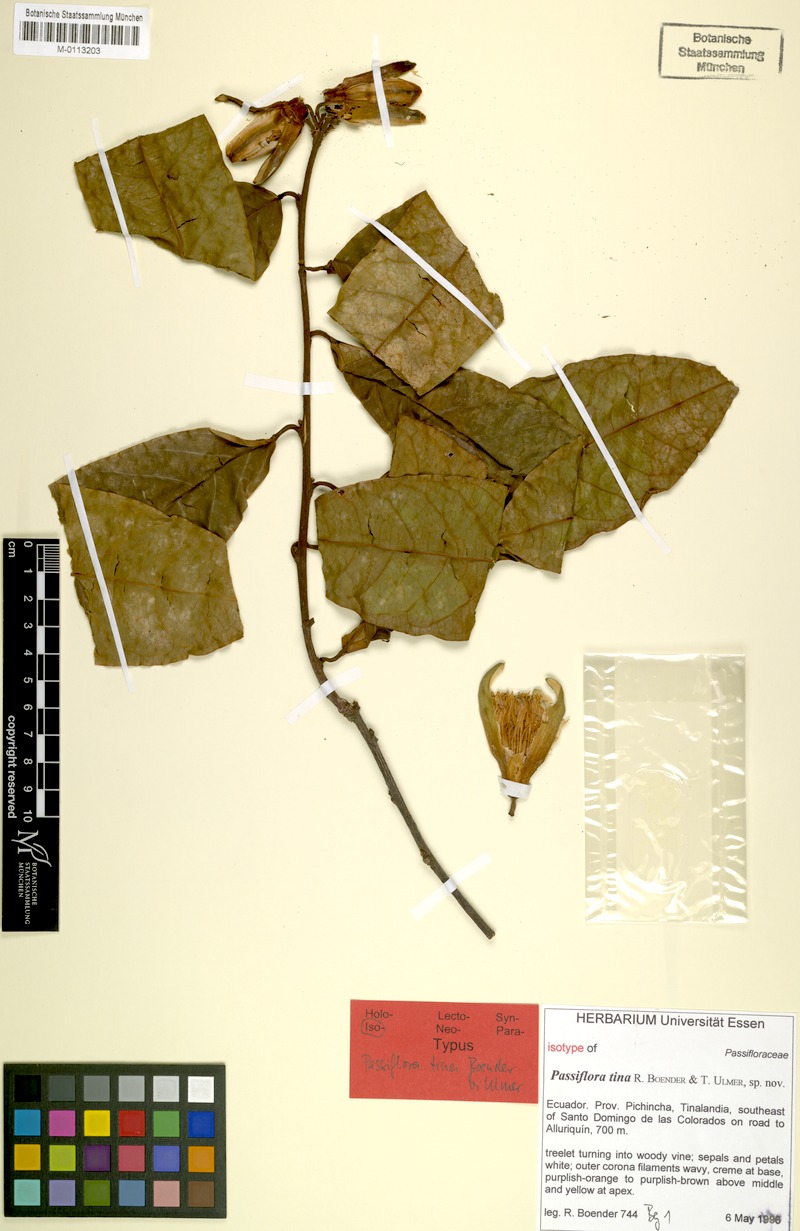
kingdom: Plantae
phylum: Tracheophyta
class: Magnoliopsida
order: Malpighiales
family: Passifloraceae
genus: Passiflora
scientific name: Passiflora tina
